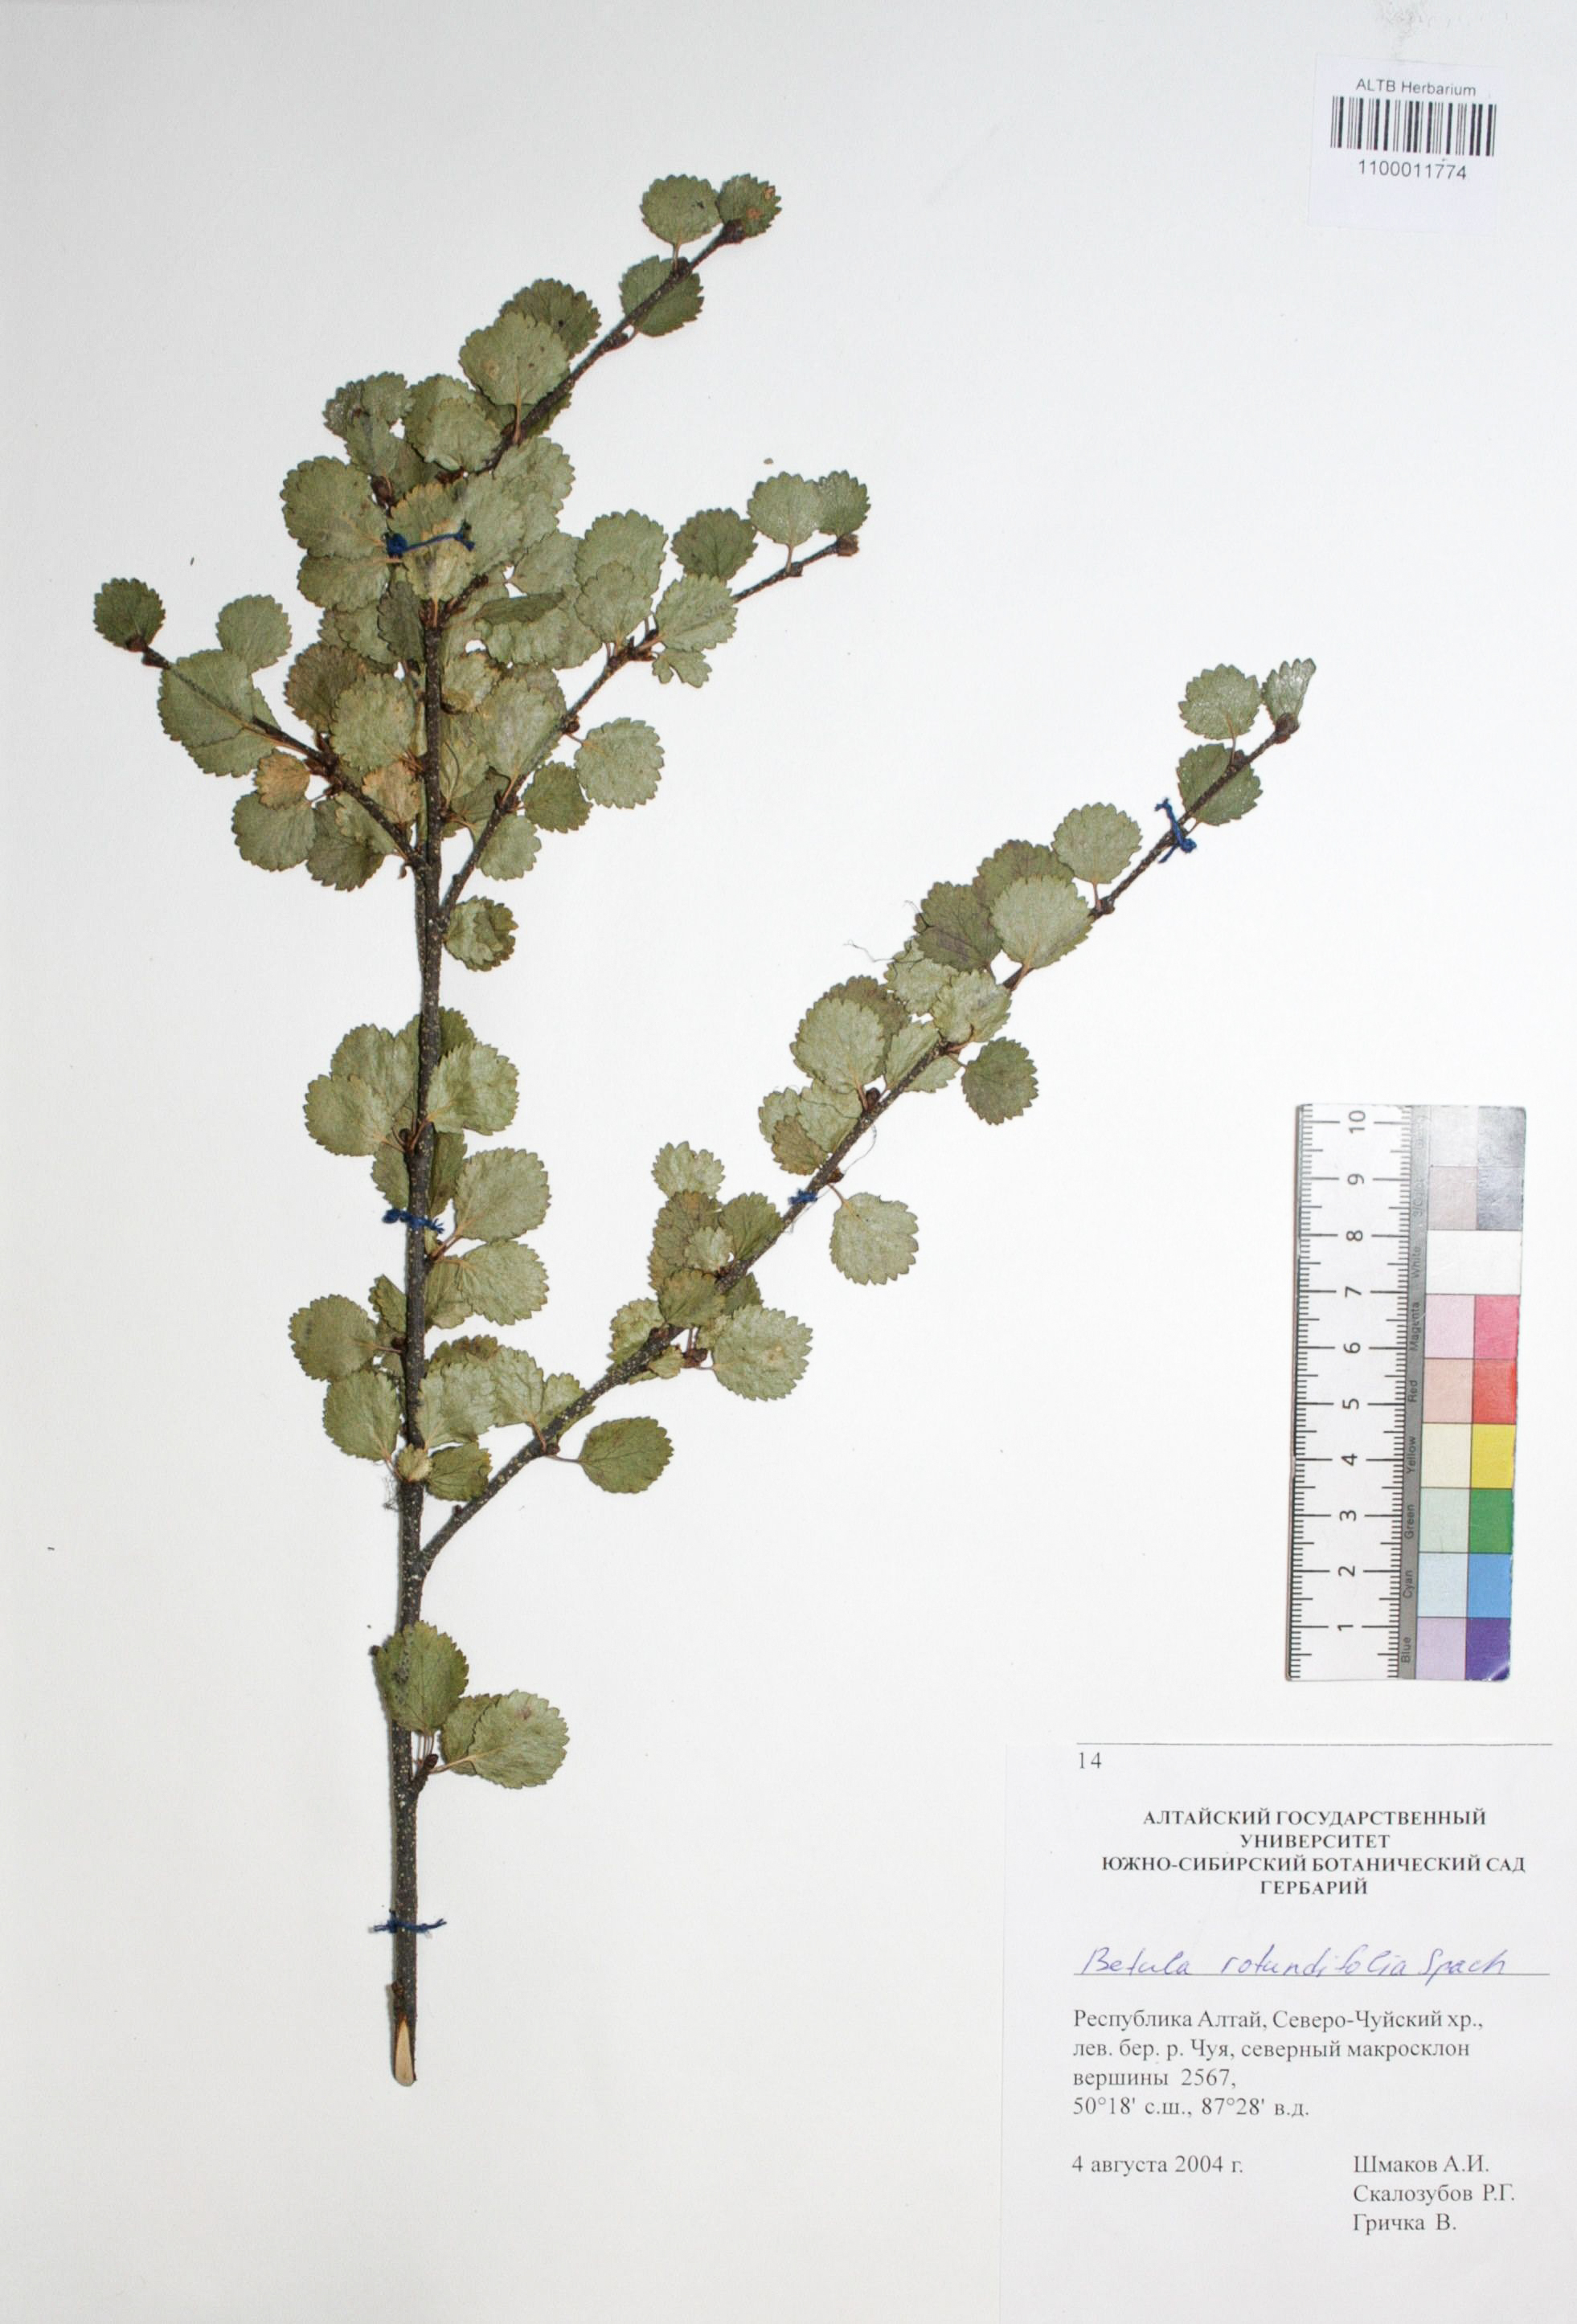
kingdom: Plantae
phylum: Tracheophyta
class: Magnoliopsida
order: Fagales
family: Betulaceae
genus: Betula
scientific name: Betula glandulosa
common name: Dwarf birch
